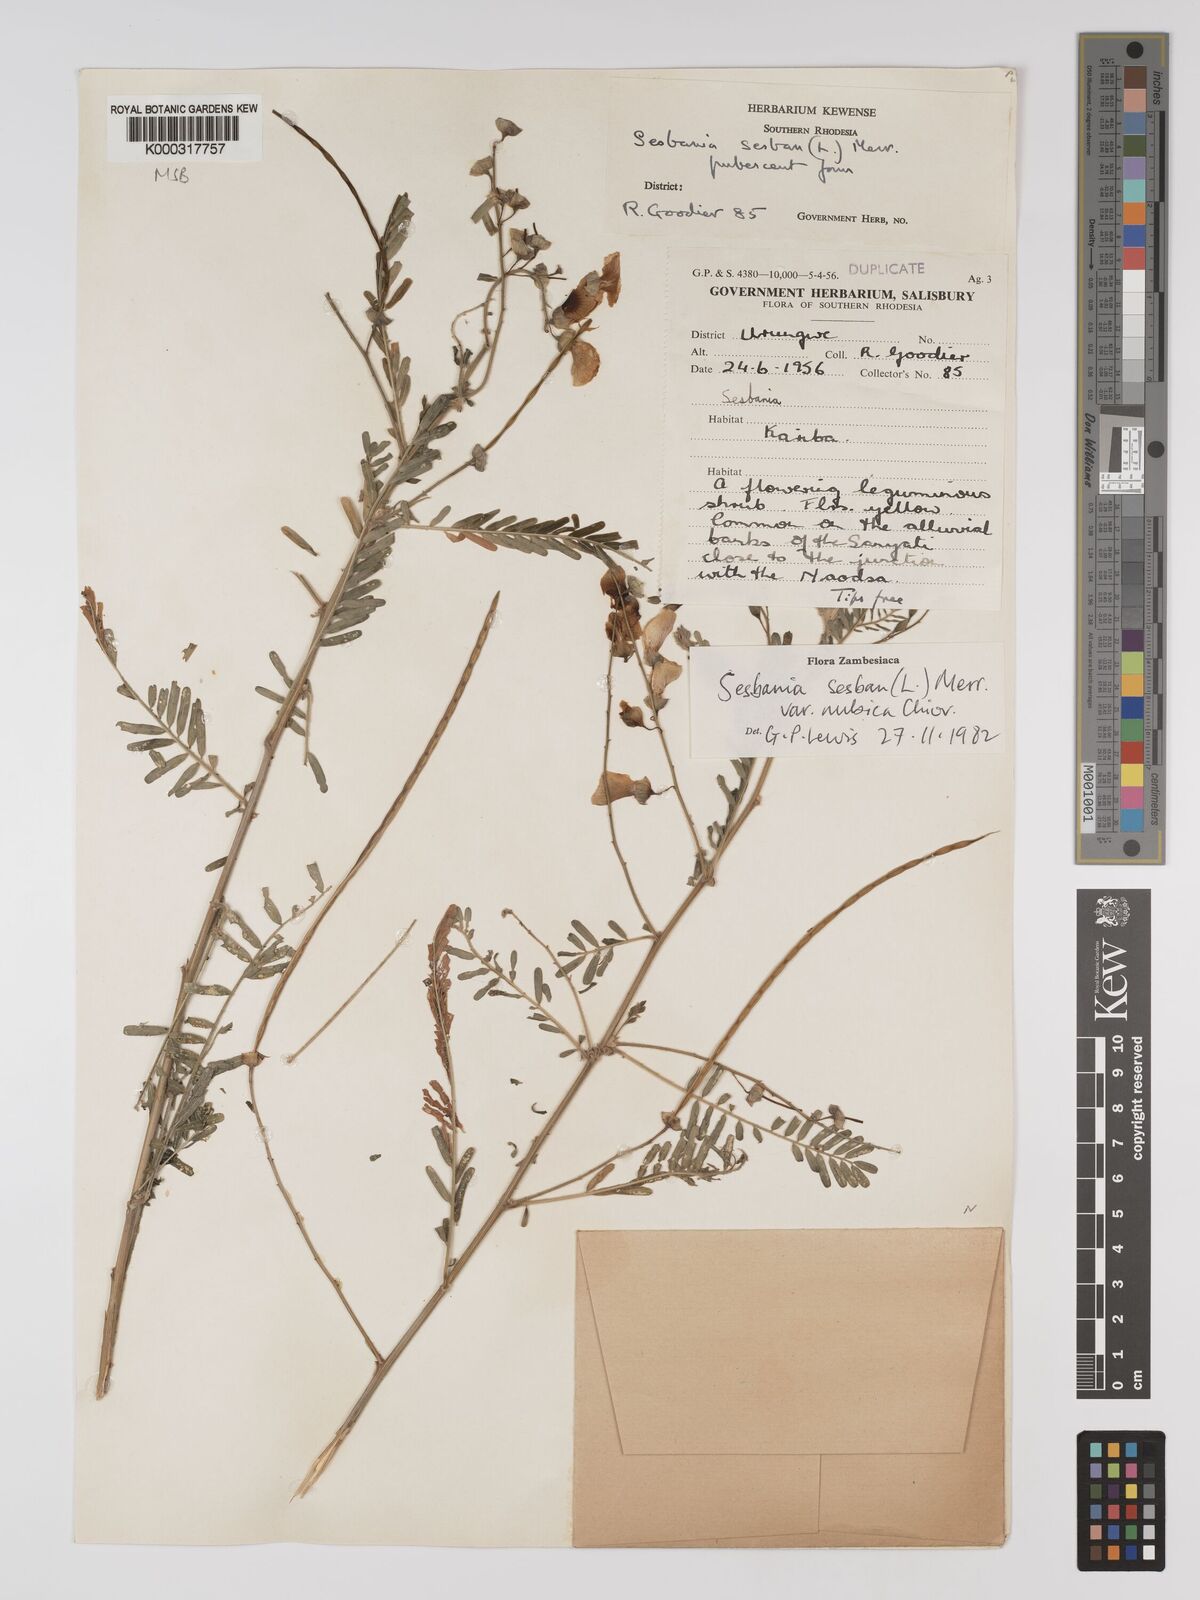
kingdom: Plantae
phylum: Tracheophyta
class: Magnoliopsida
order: Fabales
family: Fabaceae
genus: Sesbania
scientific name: Sesbania sesban
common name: Egyptian sesban
